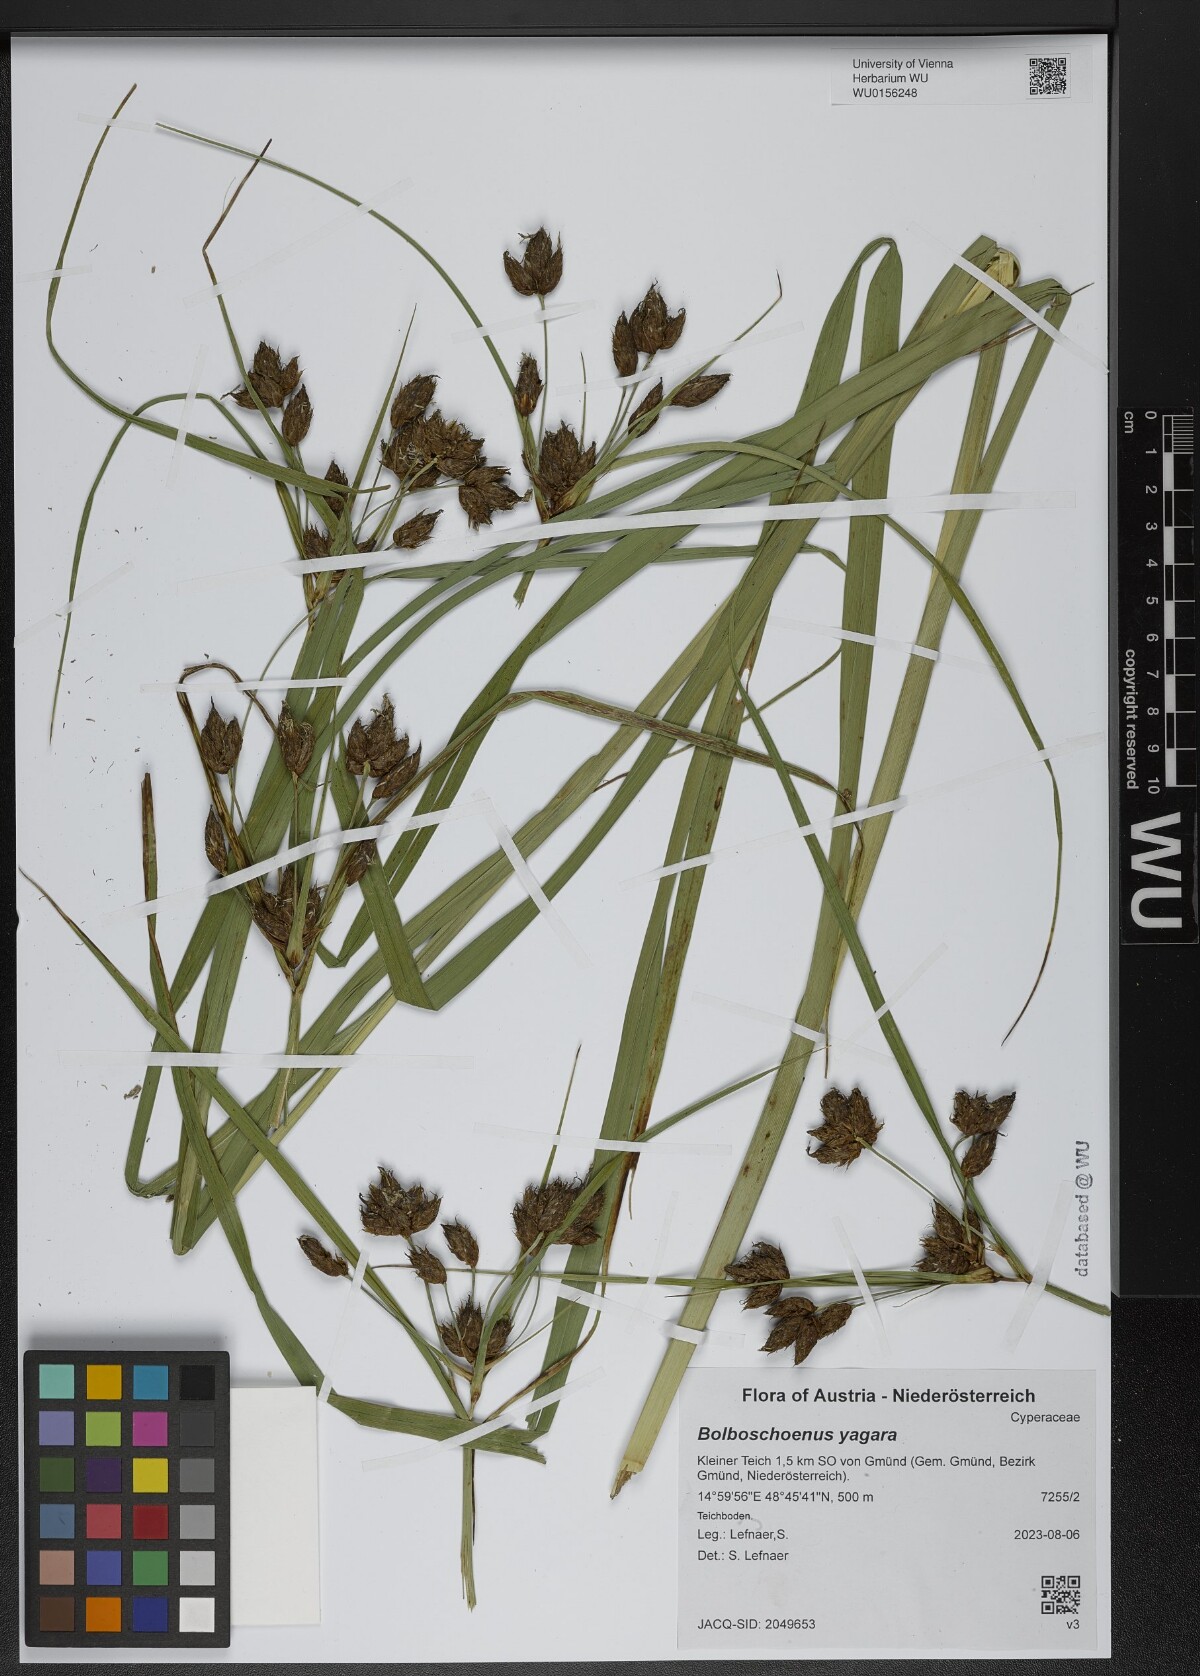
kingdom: Plantae
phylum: Tracheophyta
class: Liliopsida
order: Poales
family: Cyperaceae
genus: Bolboschoenus
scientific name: Bolboschoenus yagara
